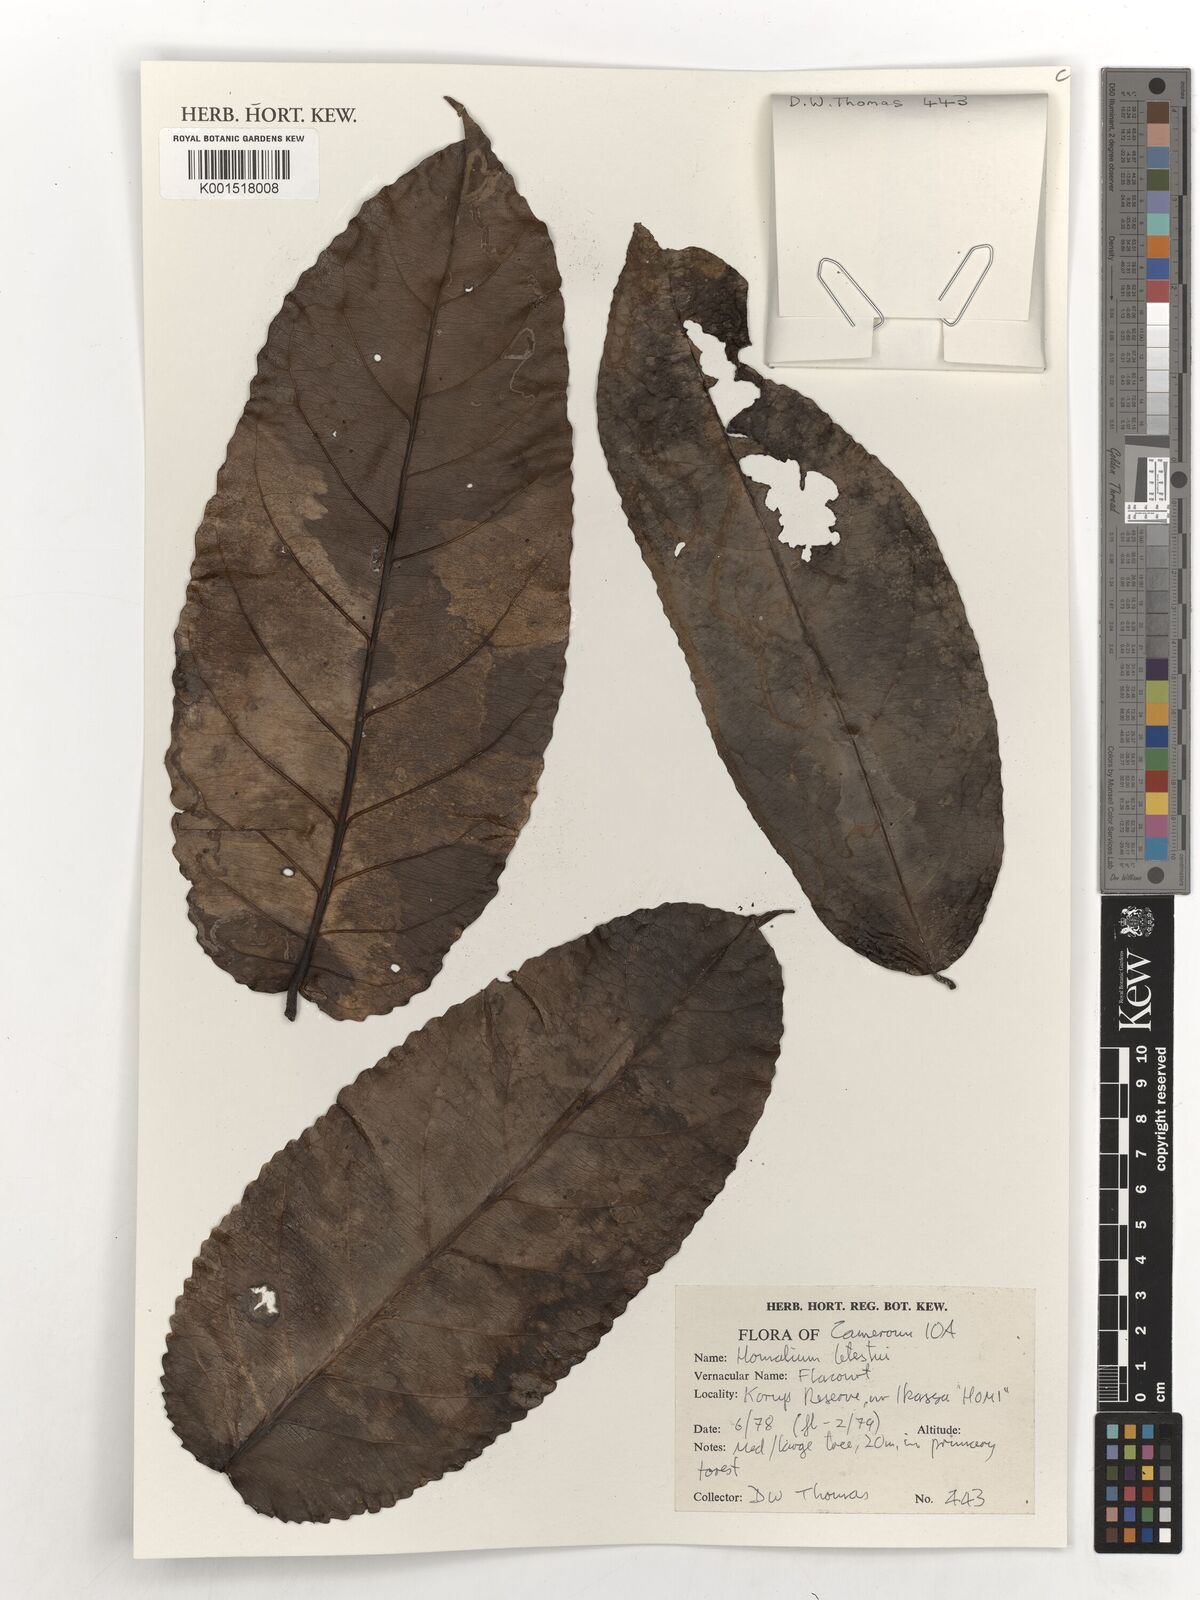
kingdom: Plantae
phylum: Tracheophyta
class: Magnoliopsida
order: Malpighiales
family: Salicaceae
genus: Homalium
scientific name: Homalium letestui
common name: African homalium
